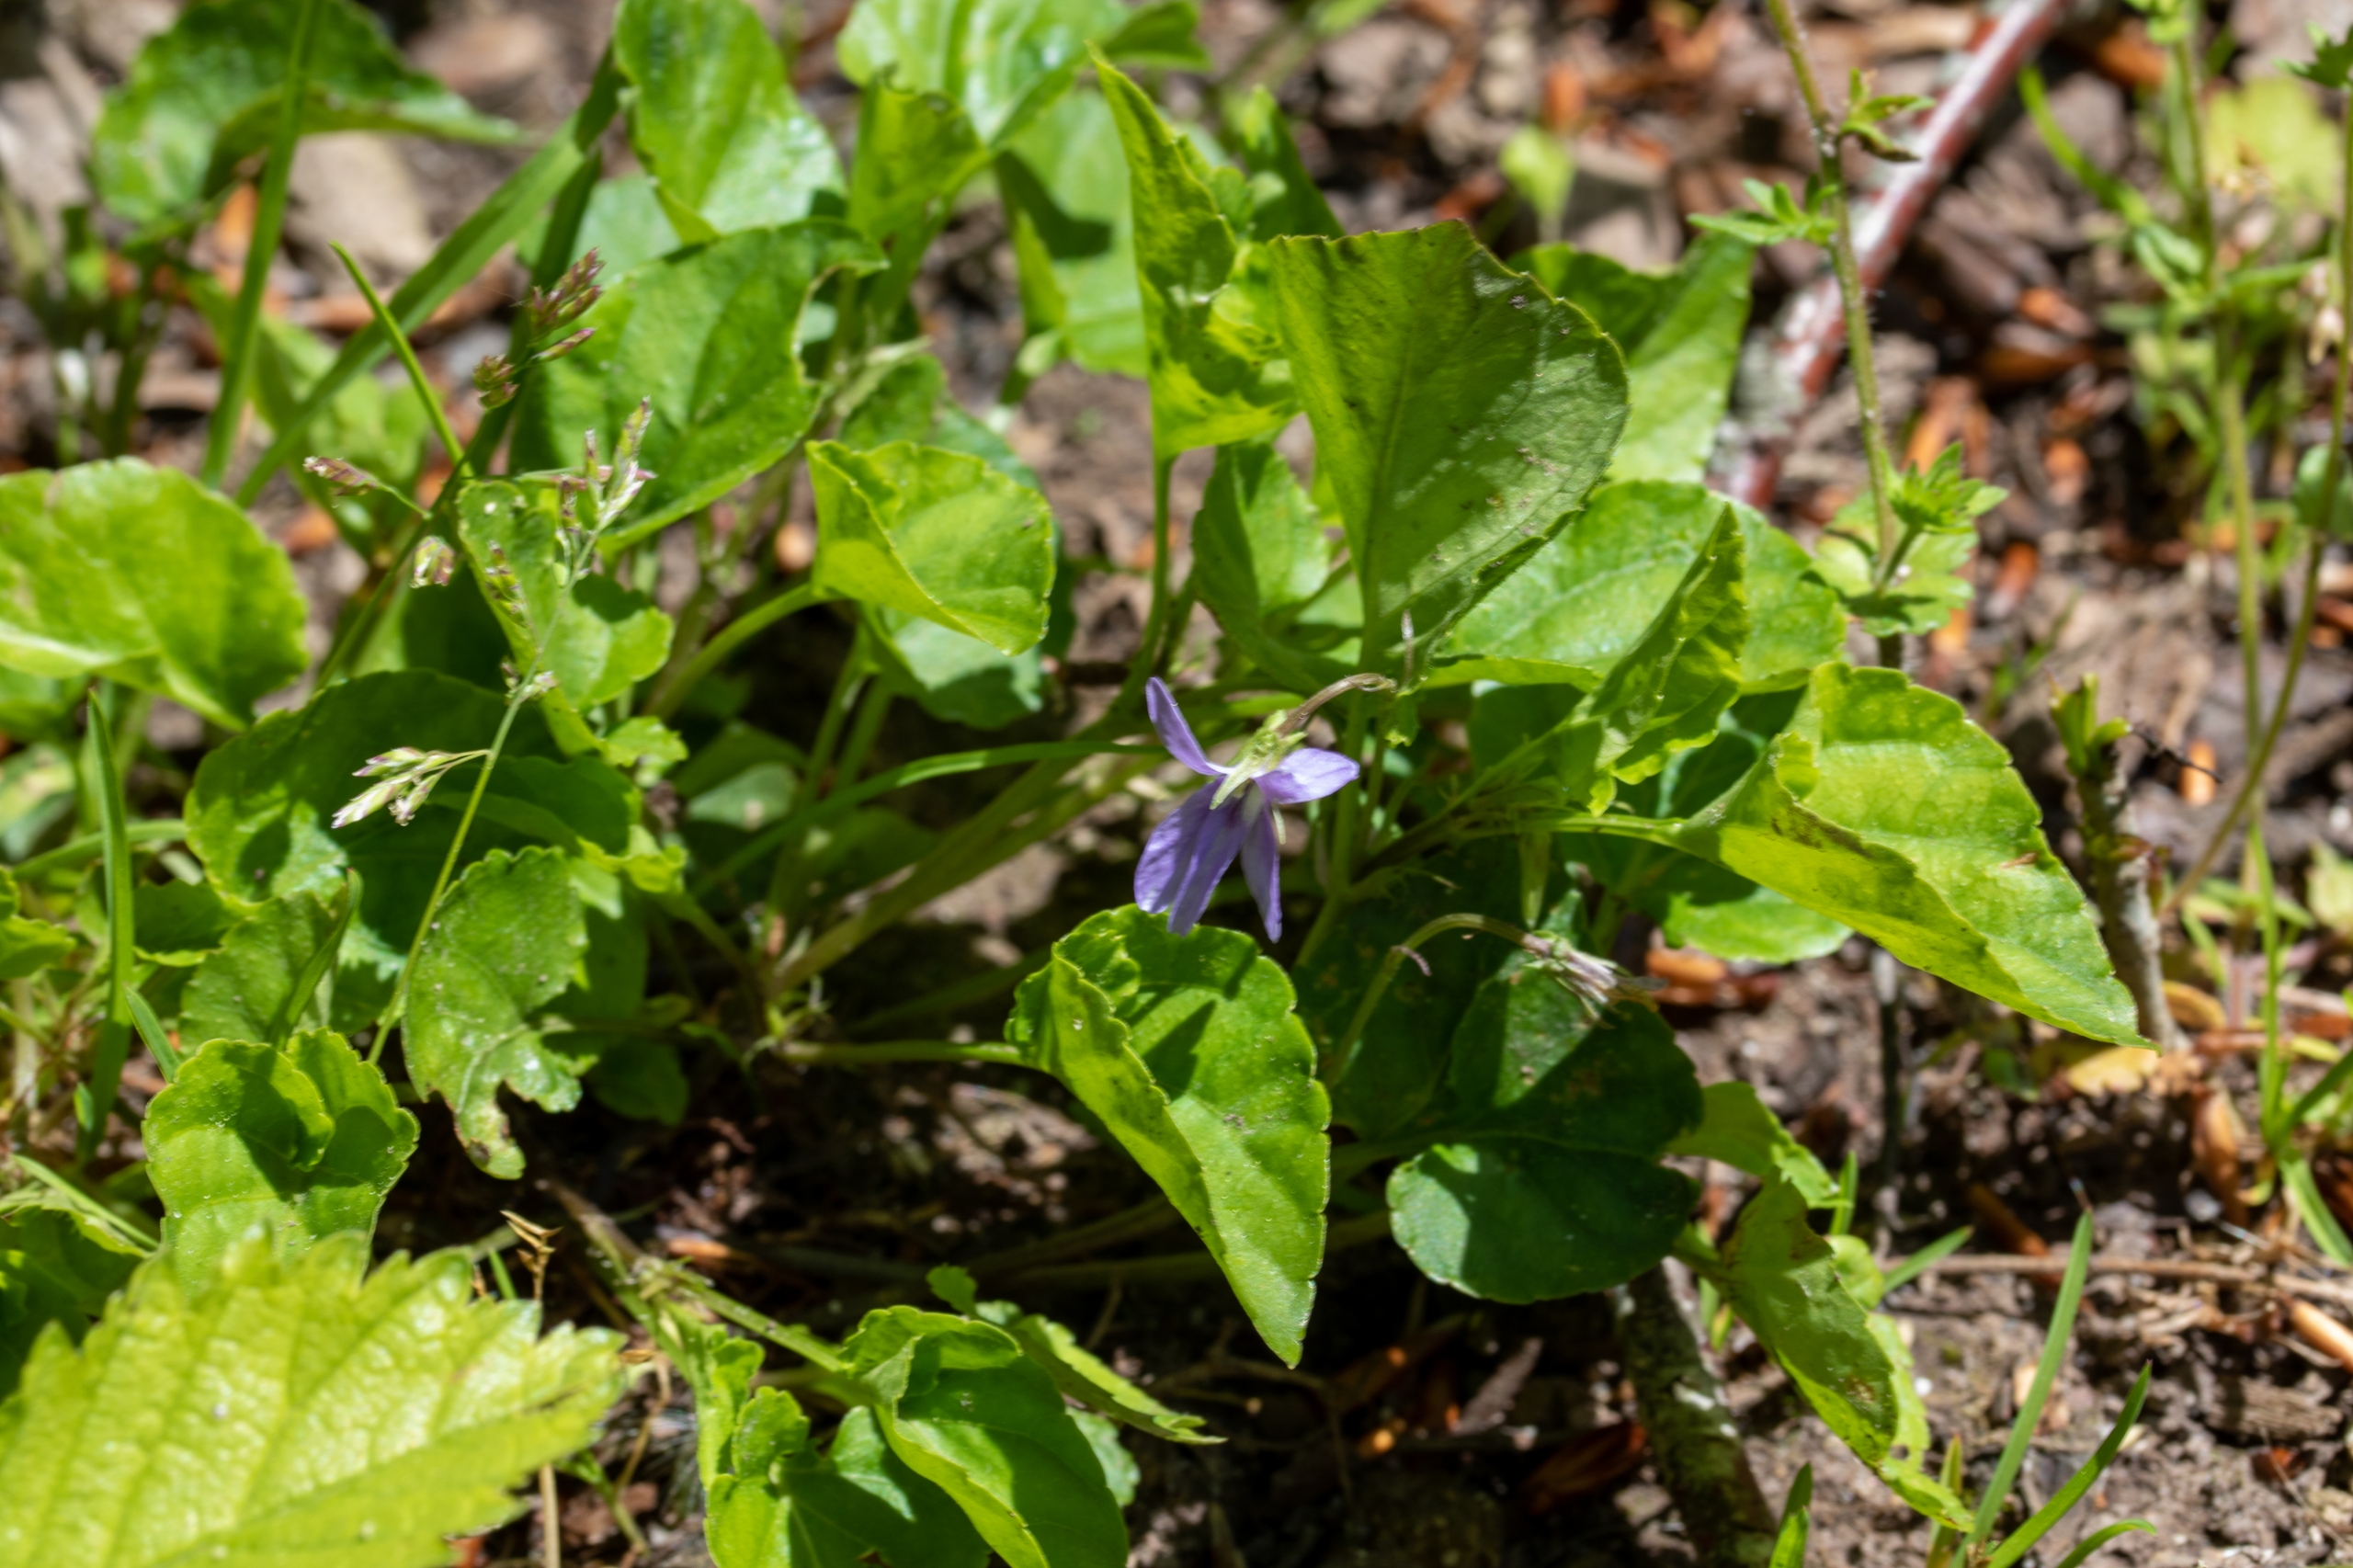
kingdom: Plantae
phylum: Tracheophyta
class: Magnoliopsida
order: Malpighiales
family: Violaceae
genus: Viola
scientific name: Viola riviniana
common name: Krat-viol
